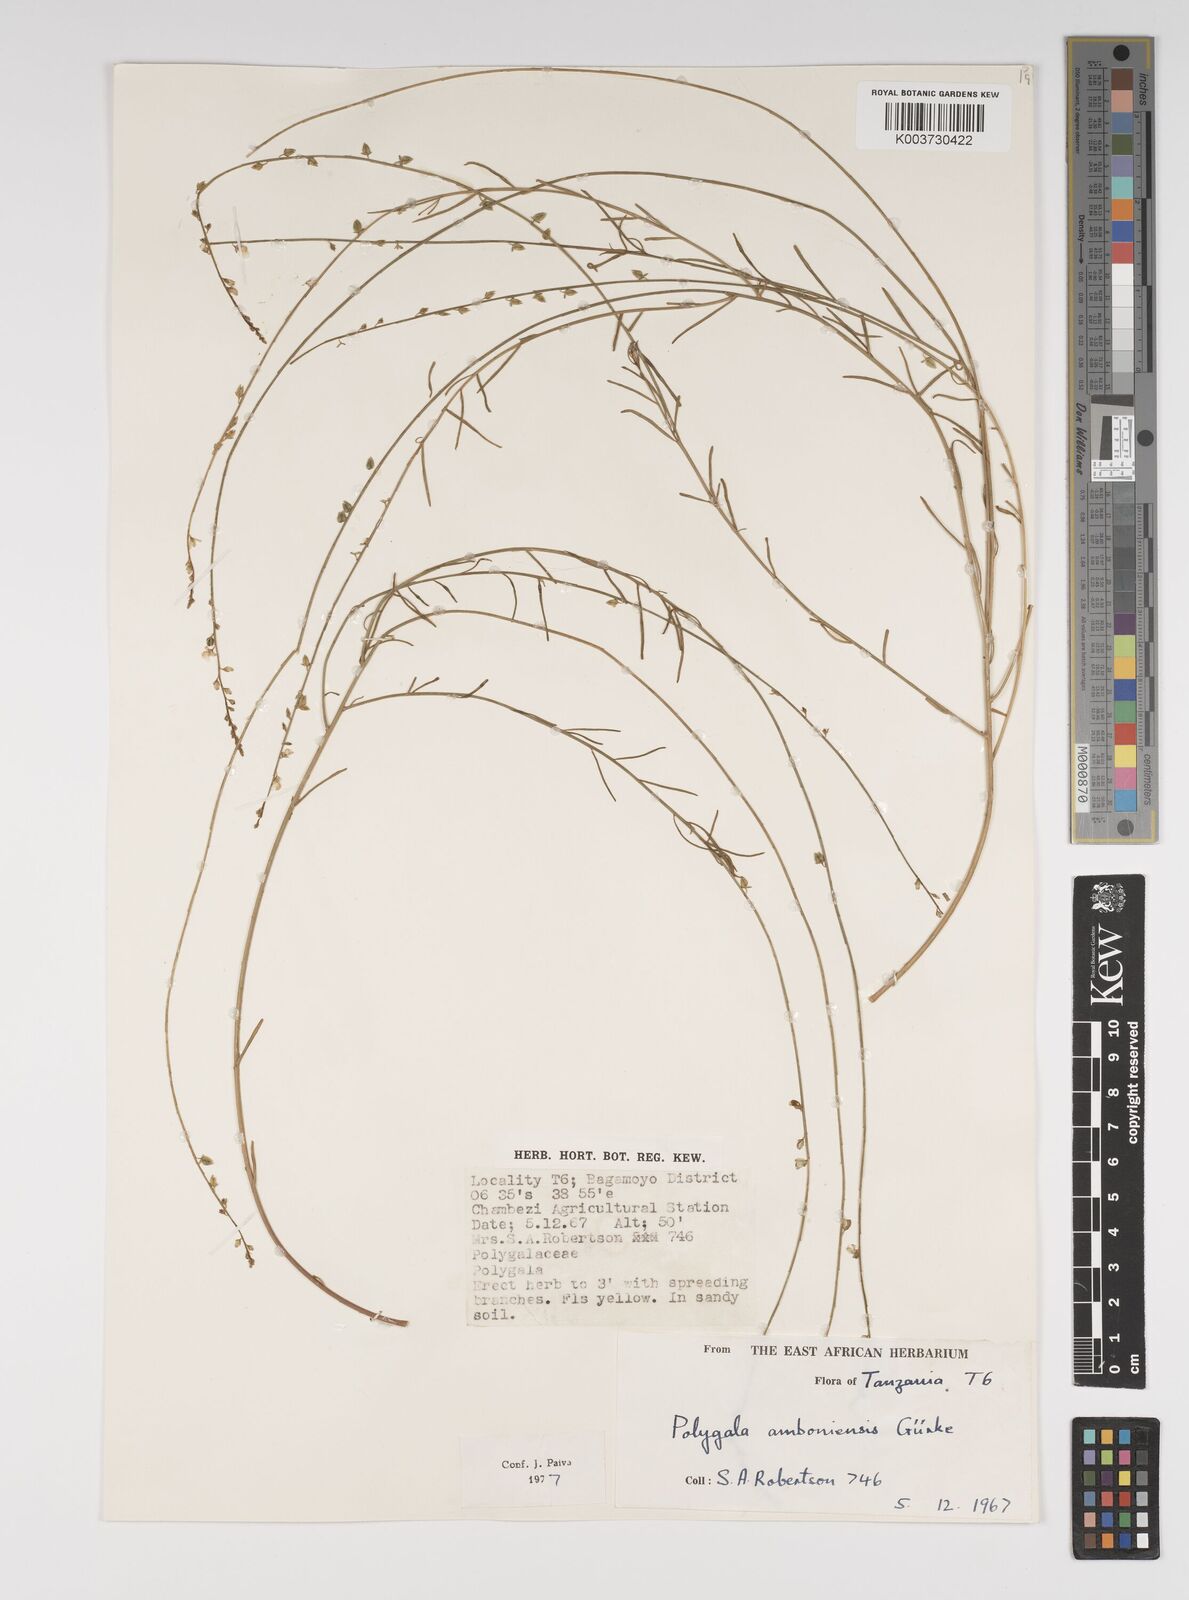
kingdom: Plantae
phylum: Tracheophyta
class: Magnoliopsida
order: Fabales
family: Polygalaceae
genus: Polygala
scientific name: Polygala amboniensis
